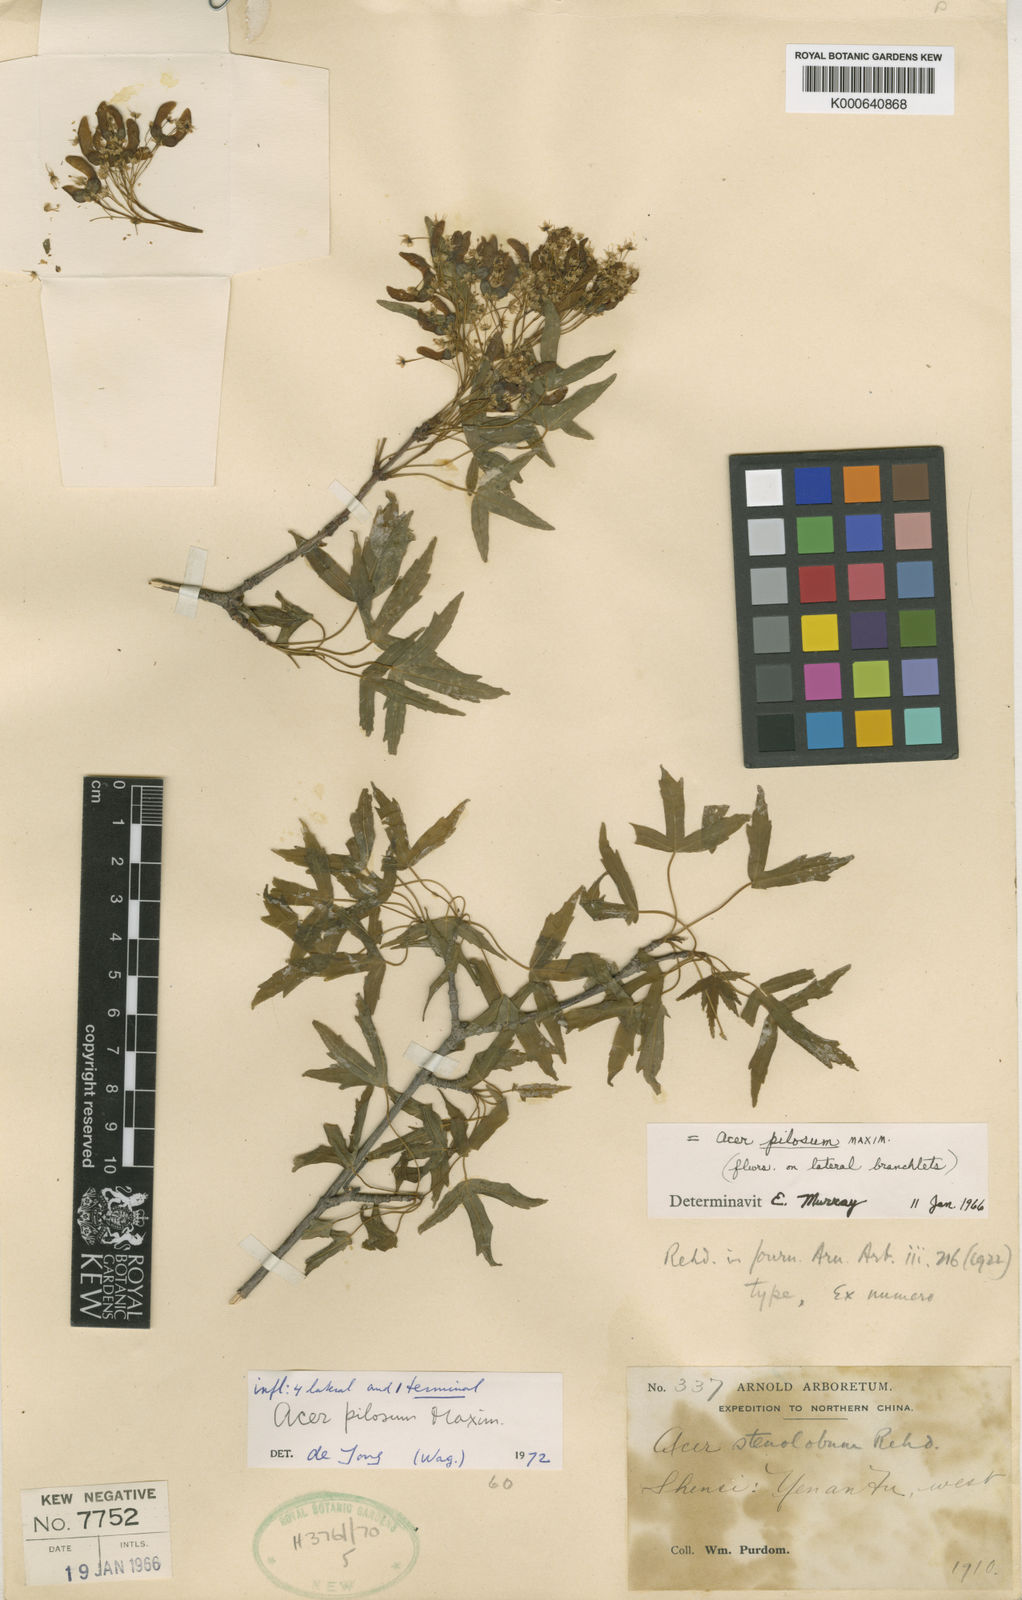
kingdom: Plantae
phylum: Tracheophyta
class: Magnoliopsida
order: Sapindales
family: Sapindaceae
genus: Acer
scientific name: Acer pilosum
